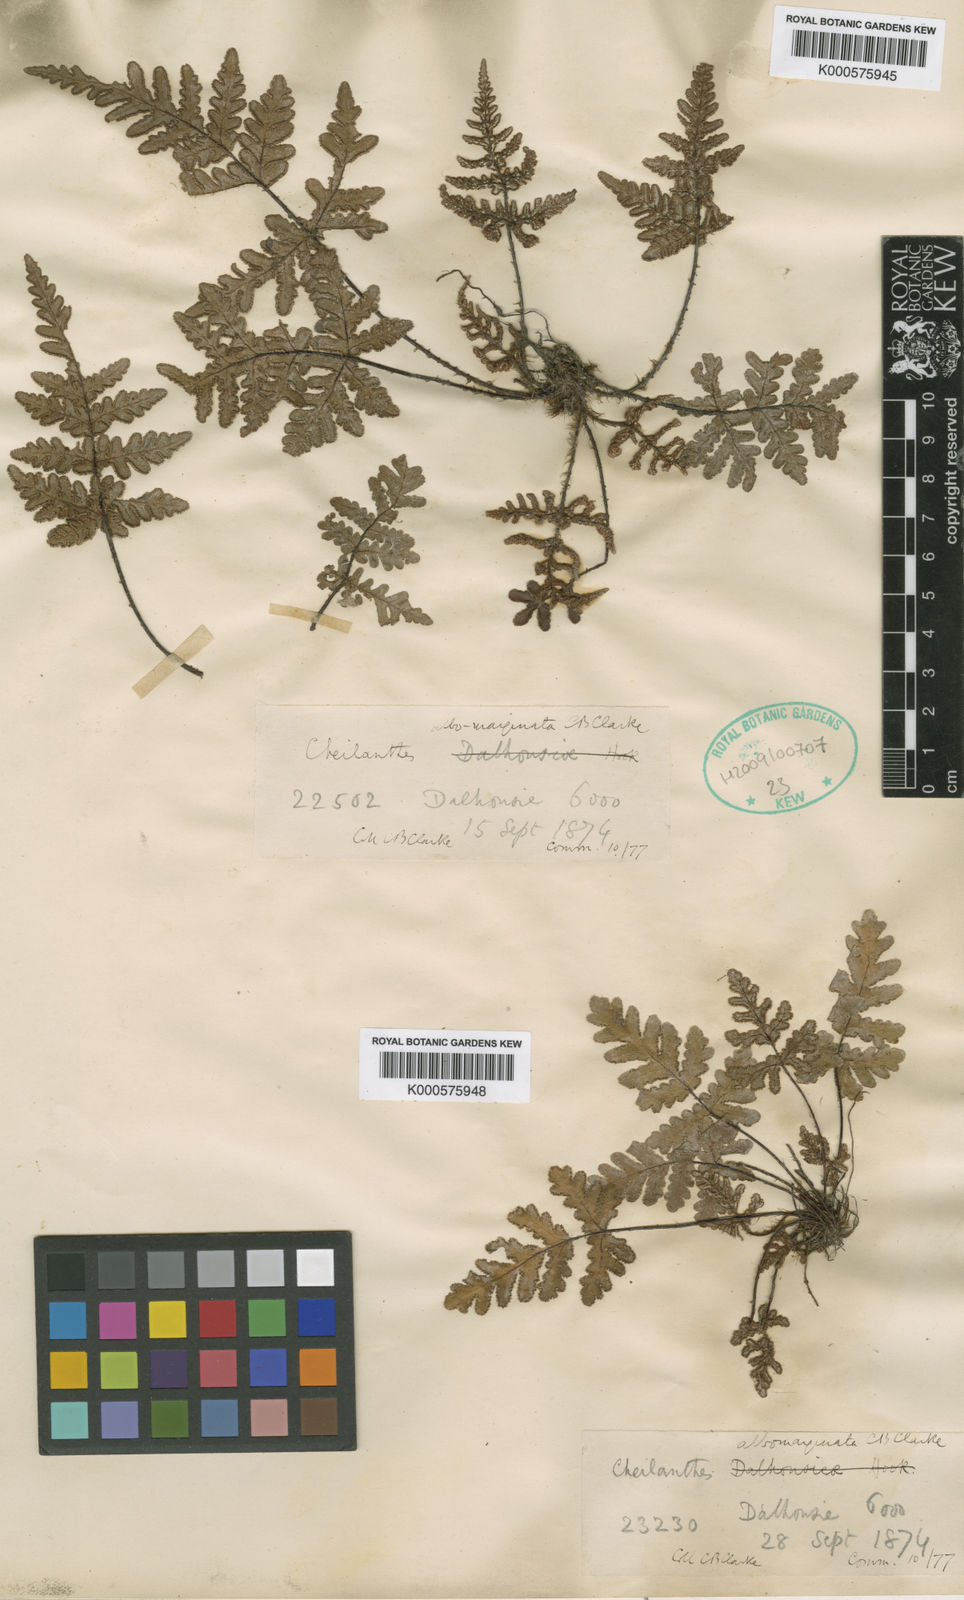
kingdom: Plantae
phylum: Tracheophyta
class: Polypodiopsida
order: Polypodiales
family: Pteridaceae
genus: Aleuritopteris
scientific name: Aleuritopteris albomarginata
